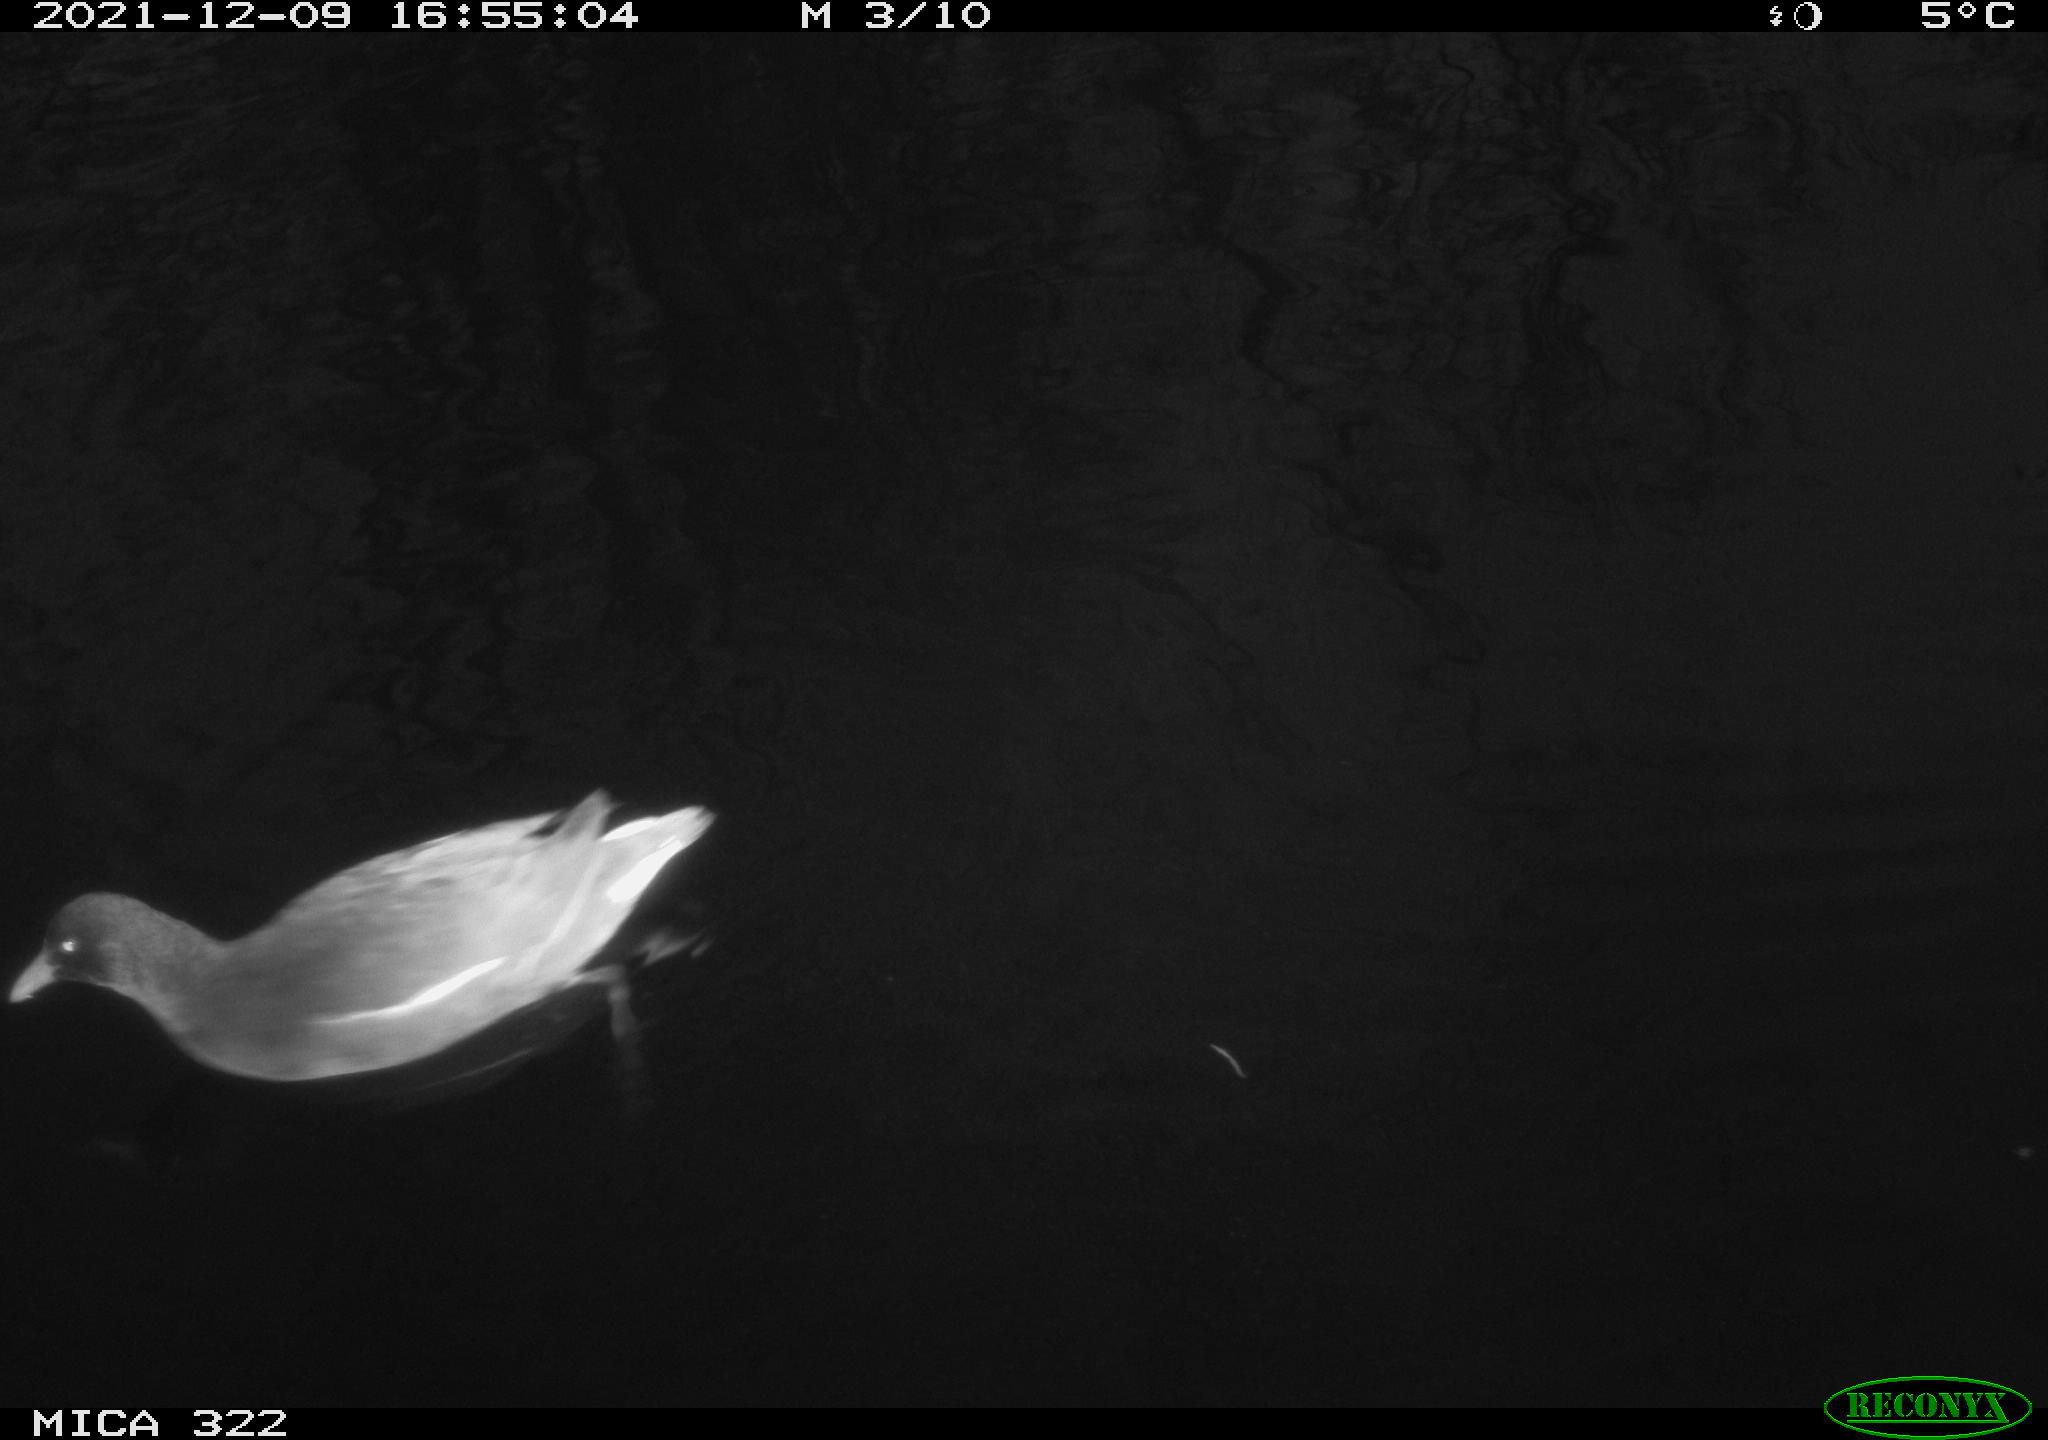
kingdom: Animalia
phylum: Chordata
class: Aves
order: Gruiformes
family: Rallidae
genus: Gallinula
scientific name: Gallinula chloropus
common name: Common moorhen
